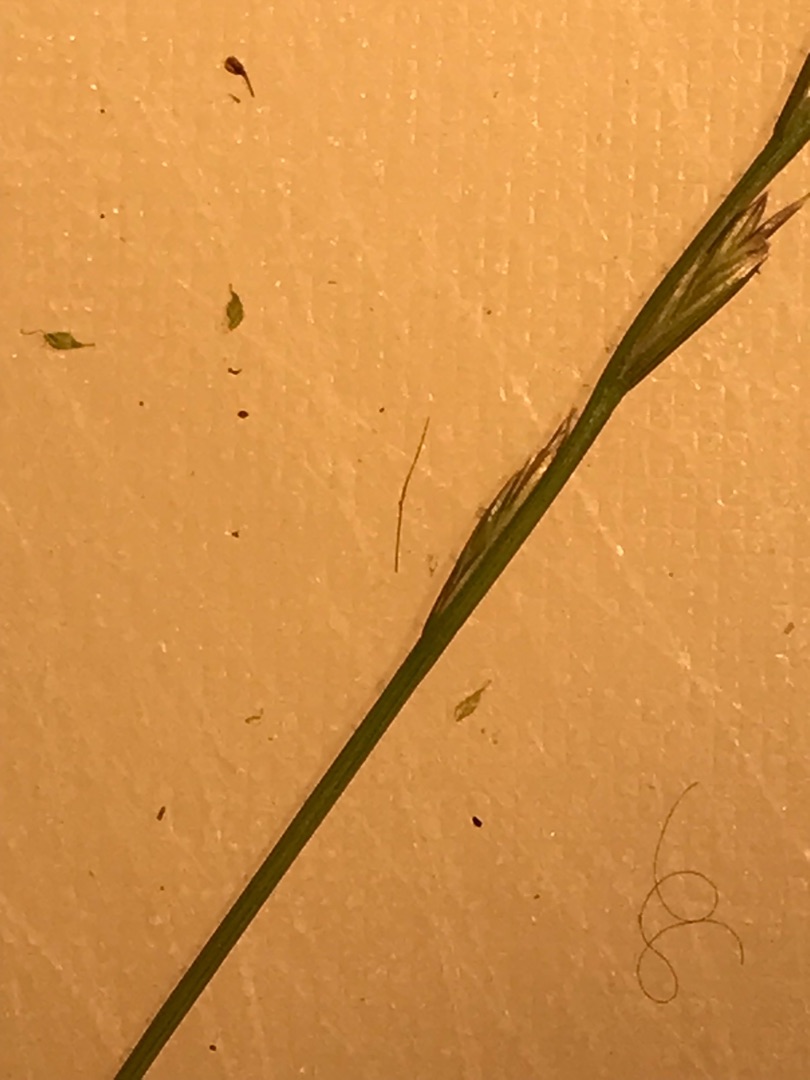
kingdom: Plantae
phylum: Tracheophyta
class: Liliopsida
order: Poales
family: Poaceae
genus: Lolium
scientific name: Lolium perenne
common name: Almindelig rajgræs
